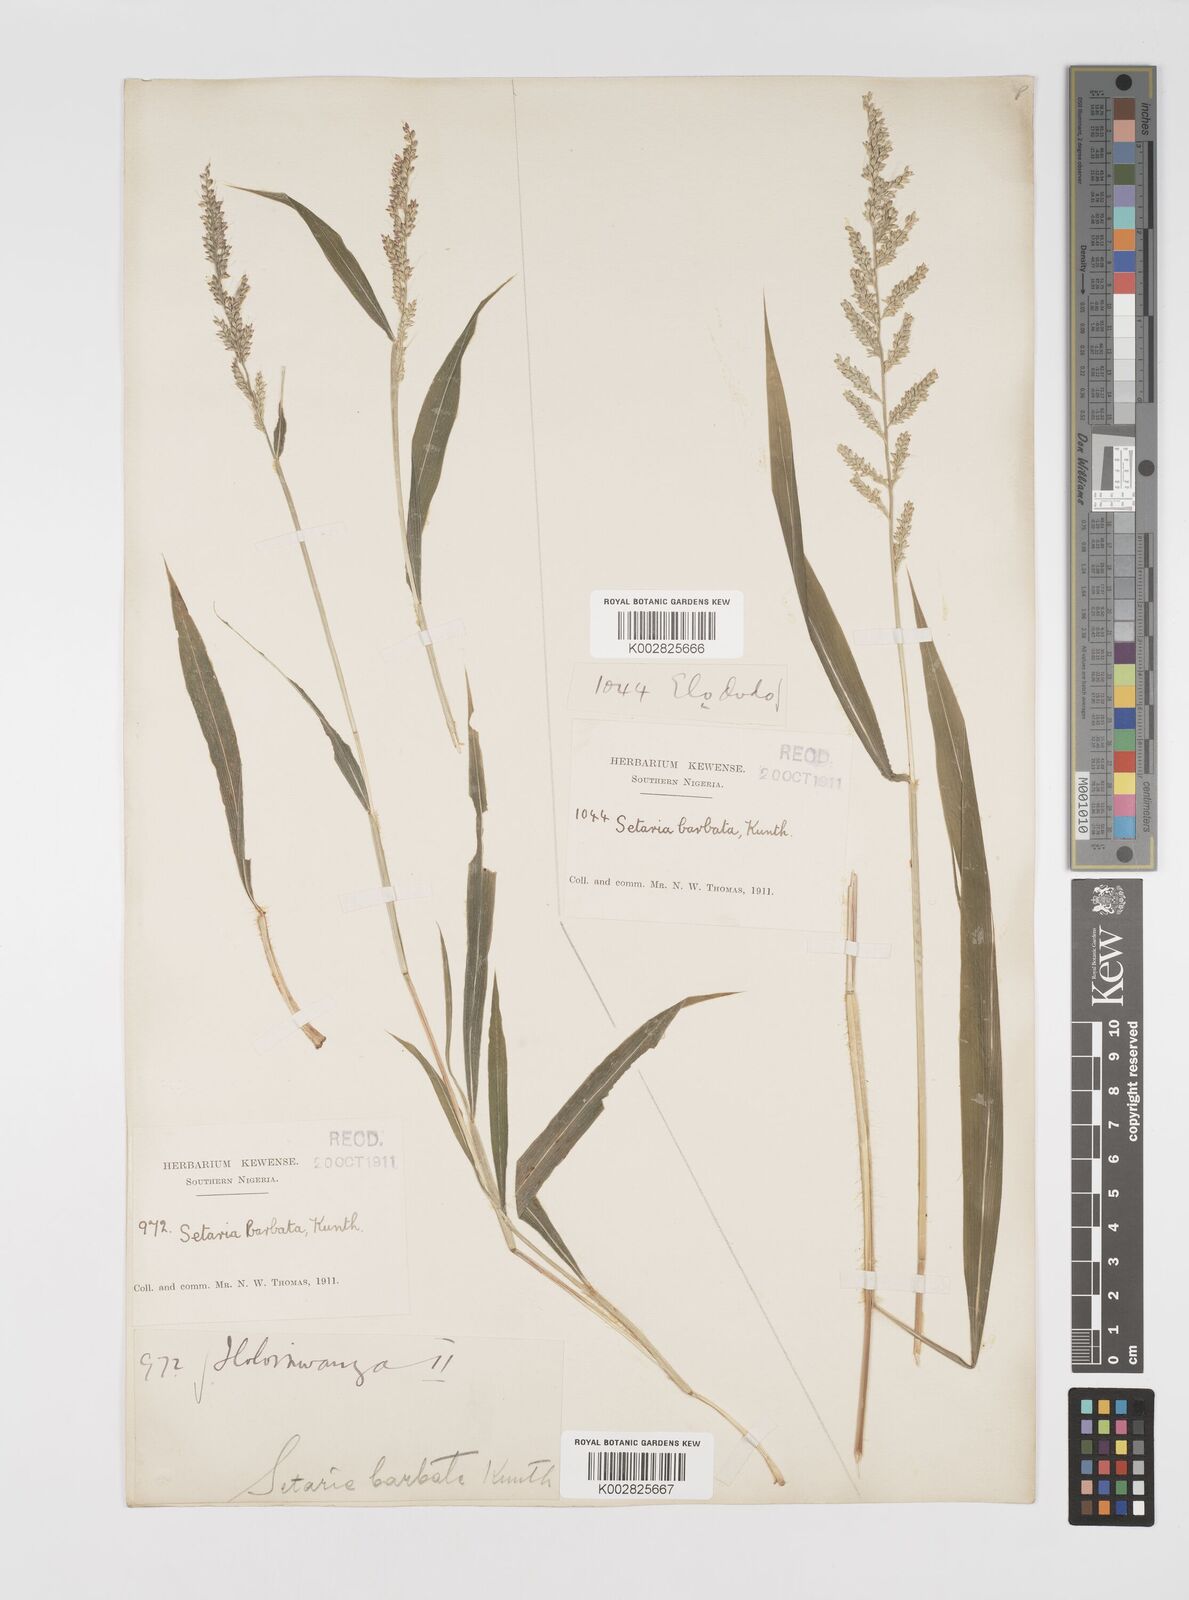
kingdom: Plantae
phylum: Tracheophyta
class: Liliopsida
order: Poales
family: Poaceae
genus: Setaria
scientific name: Setaria barbata
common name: East indian bristlegrass
